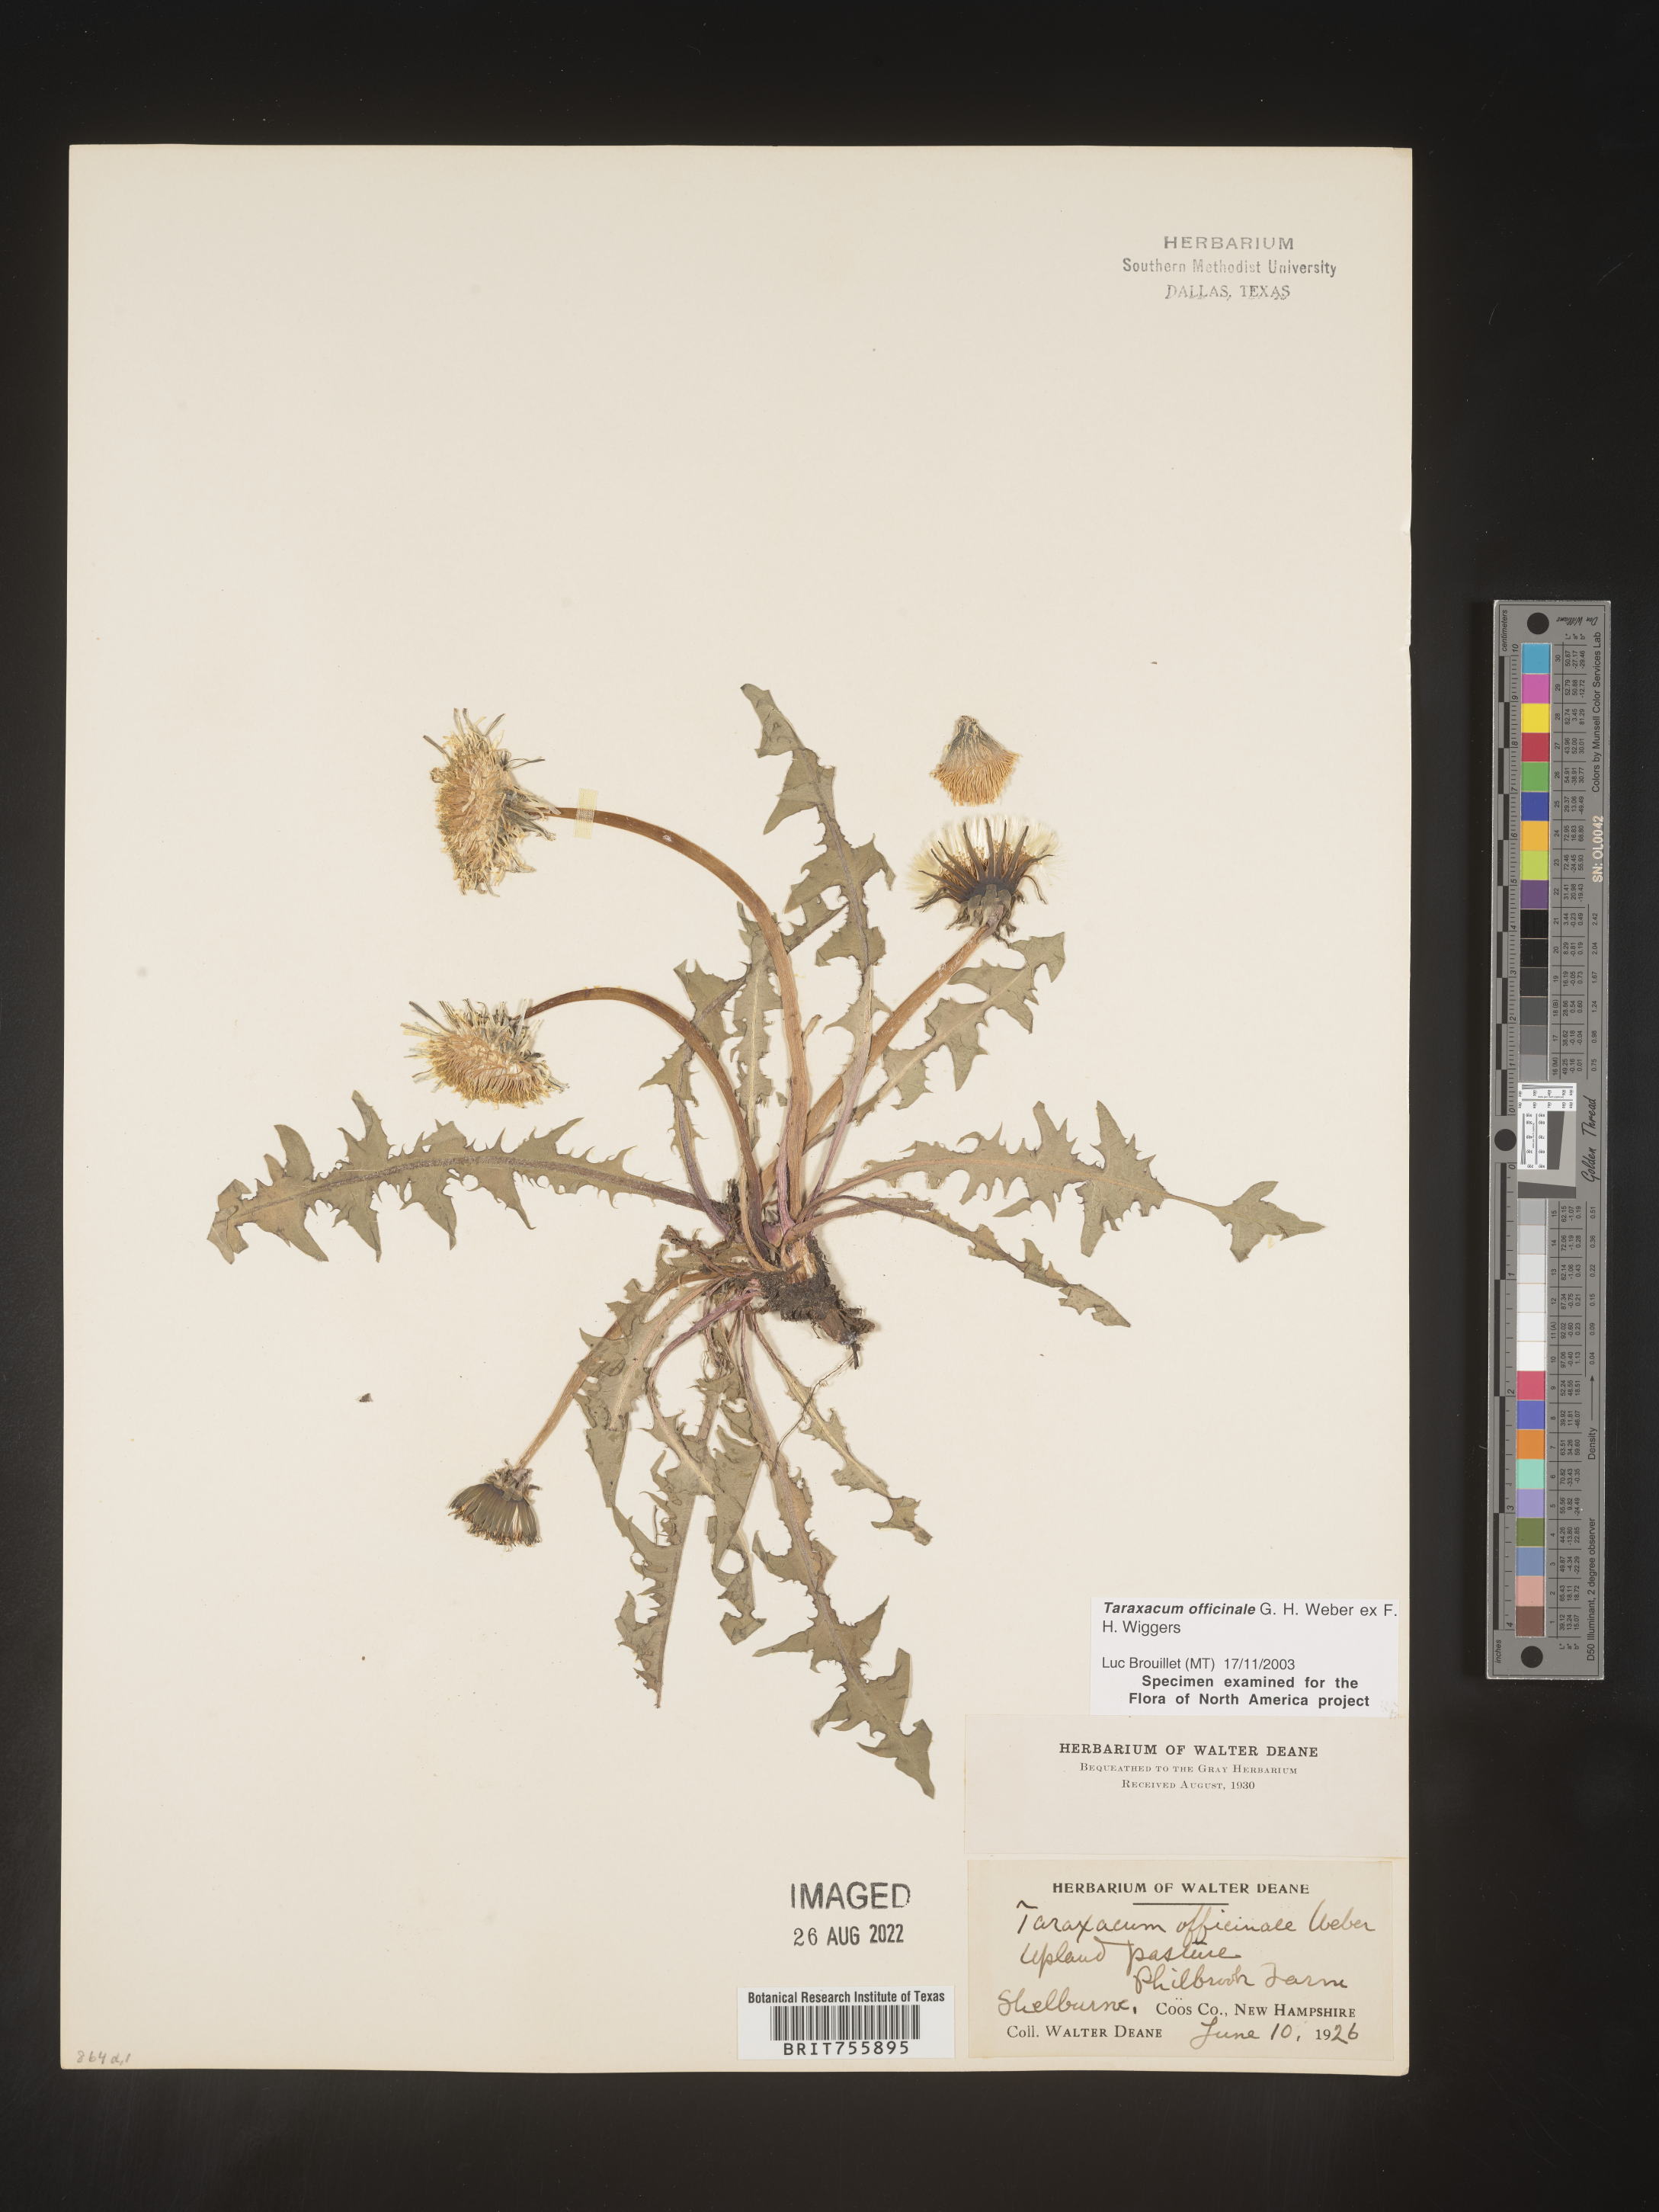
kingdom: Plantae
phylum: Tracheophyta
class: Magnoliopsida
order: Asterales
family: Asteraceae
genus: Taraxacum
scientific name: Taraxacum officinale
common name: Common dandelion
